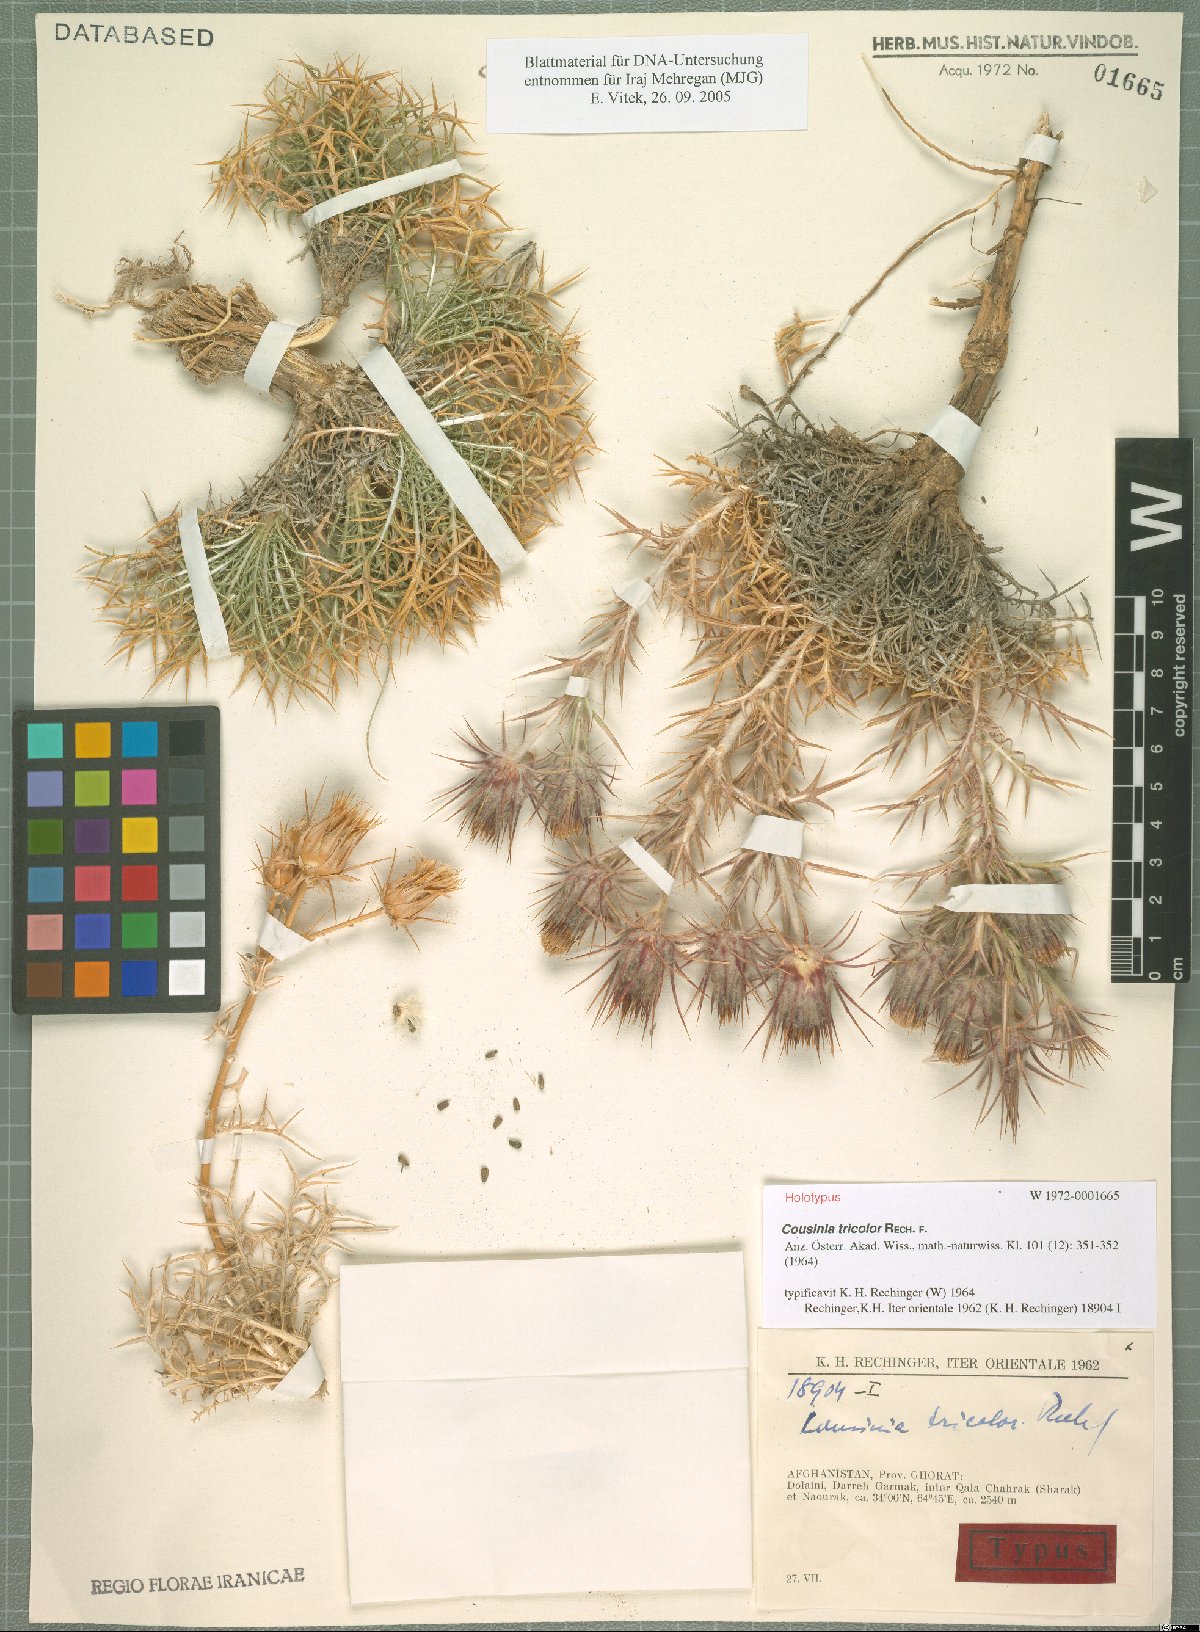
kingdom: Plantae
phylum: Tracheophyta
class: Magnoliopsida
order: Asterales
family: Asteraceae
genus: Cousinia
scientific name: Cousinia tricolor
